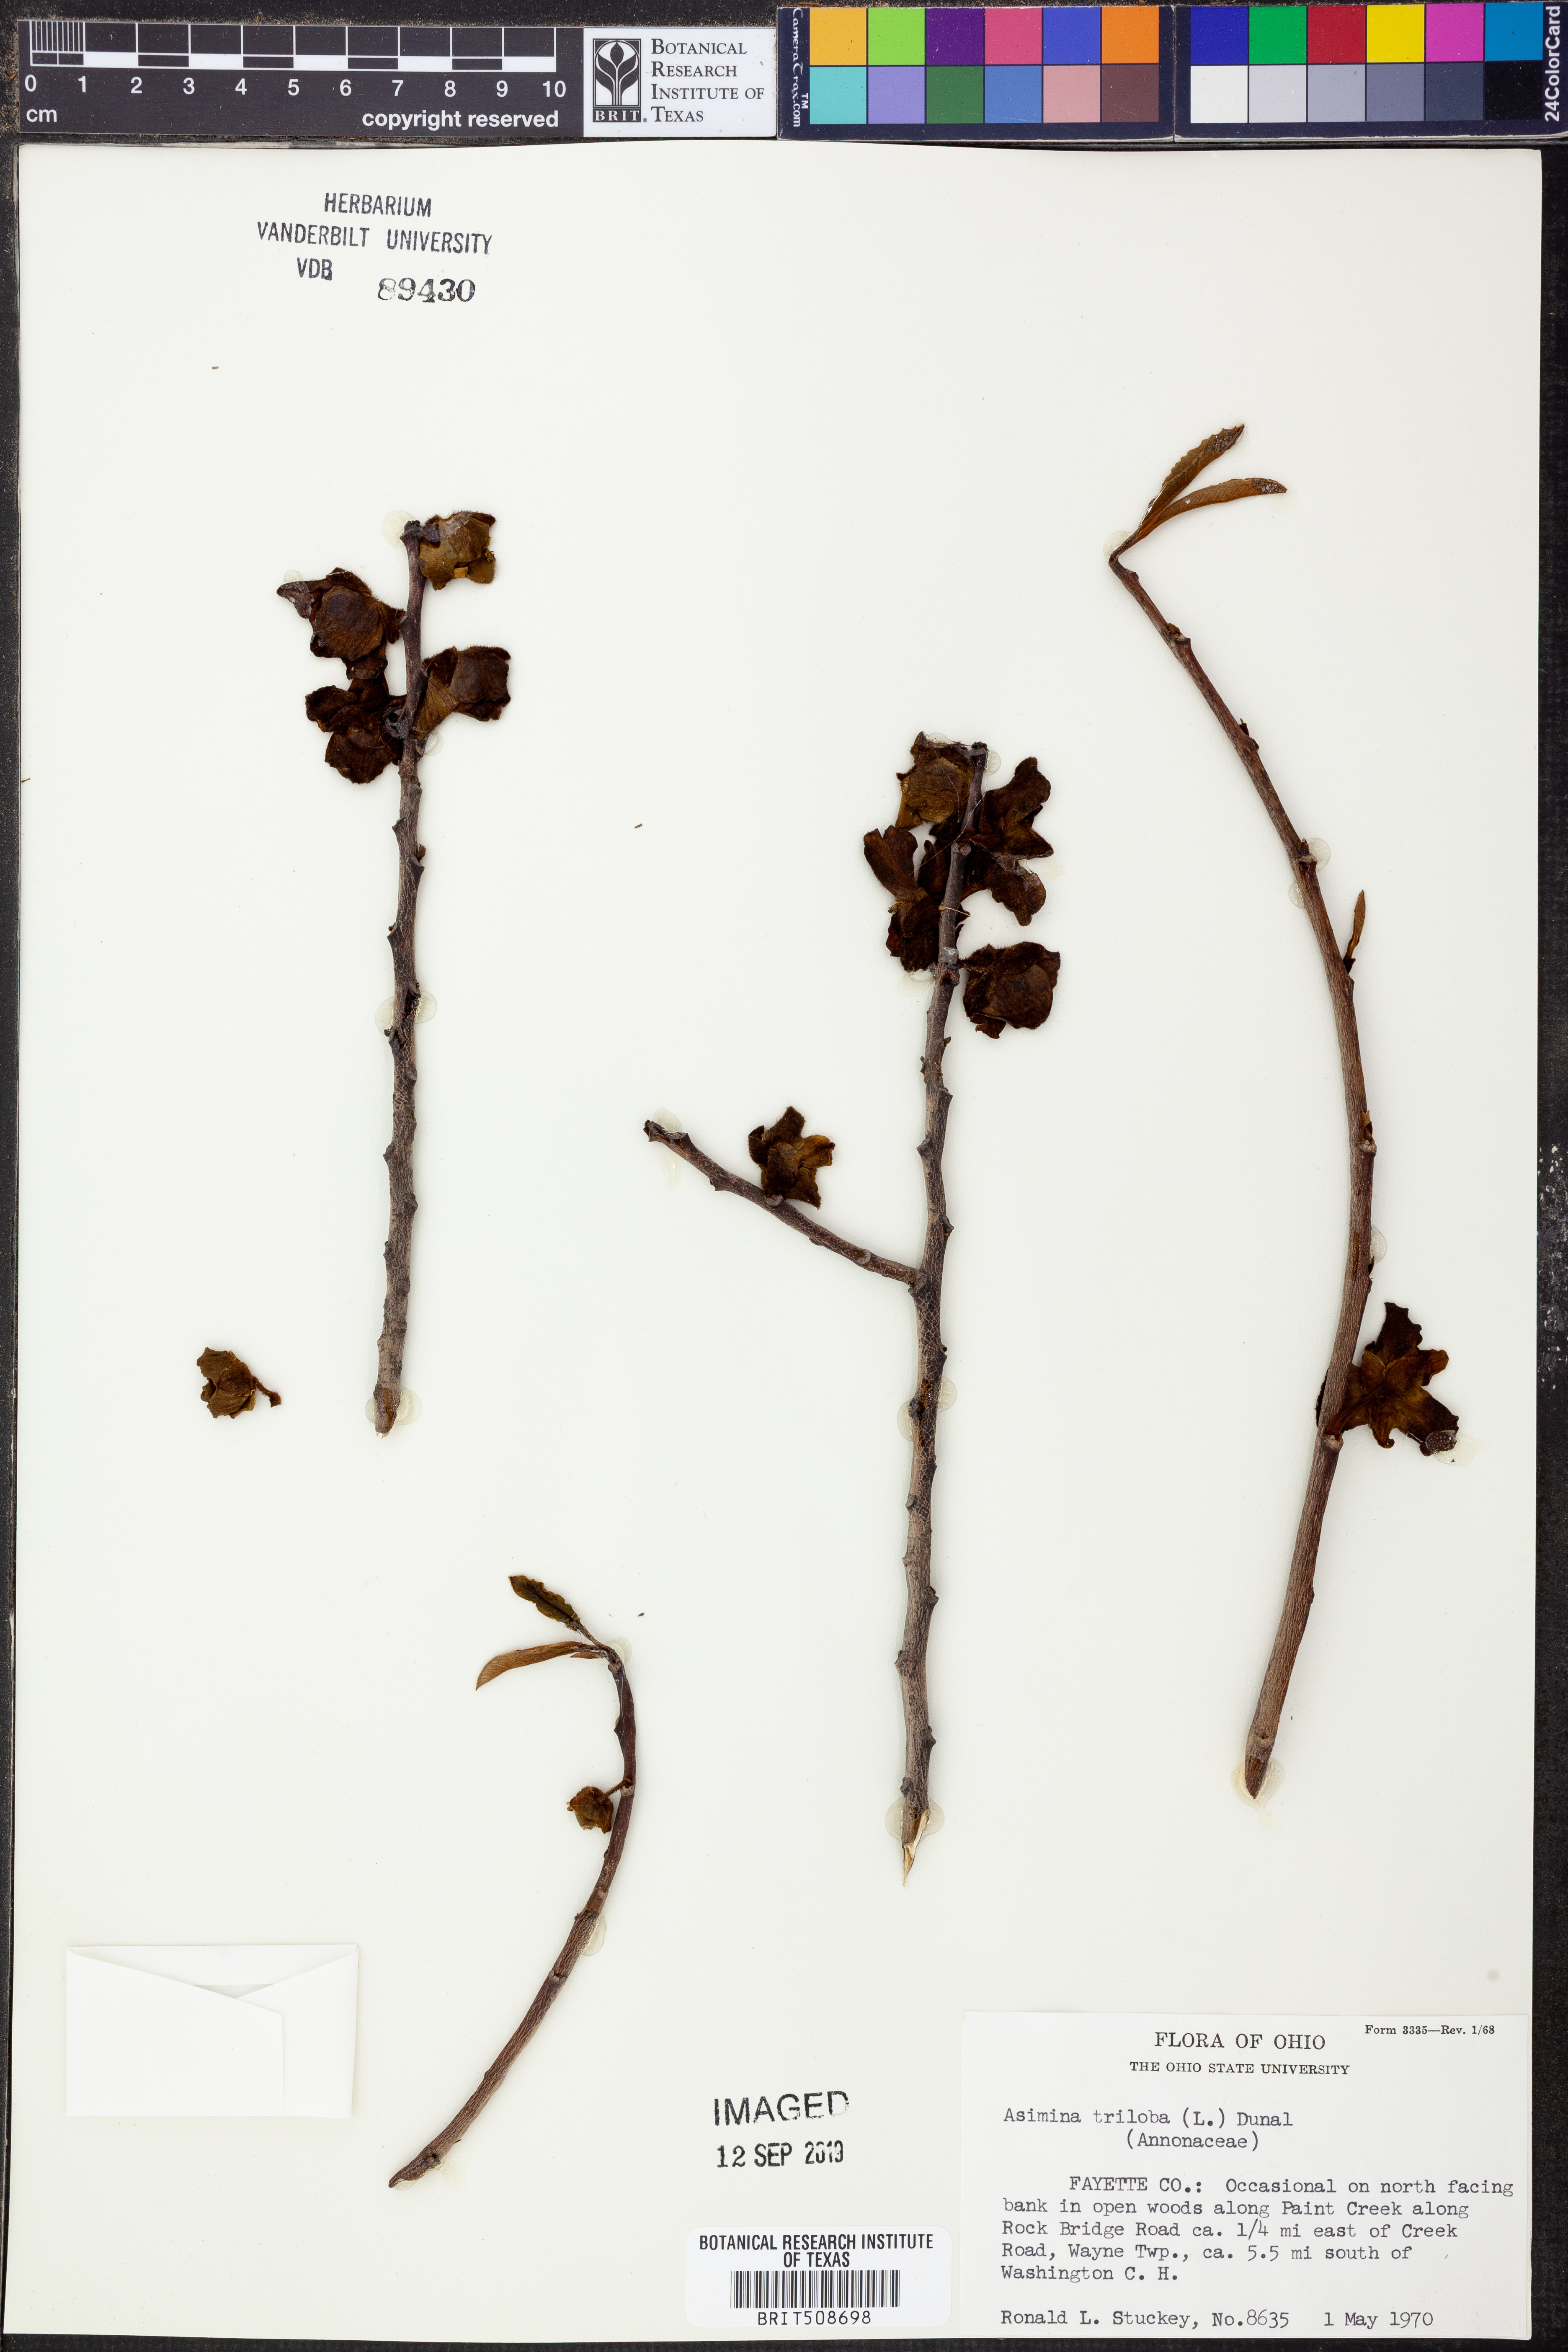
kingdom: Plantae
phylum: Tracheophyta
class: Magnoliopsida
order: Magnoliales
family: Annonaceae
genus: Asimina
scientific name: Asimina triloba
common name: Dog-banana
